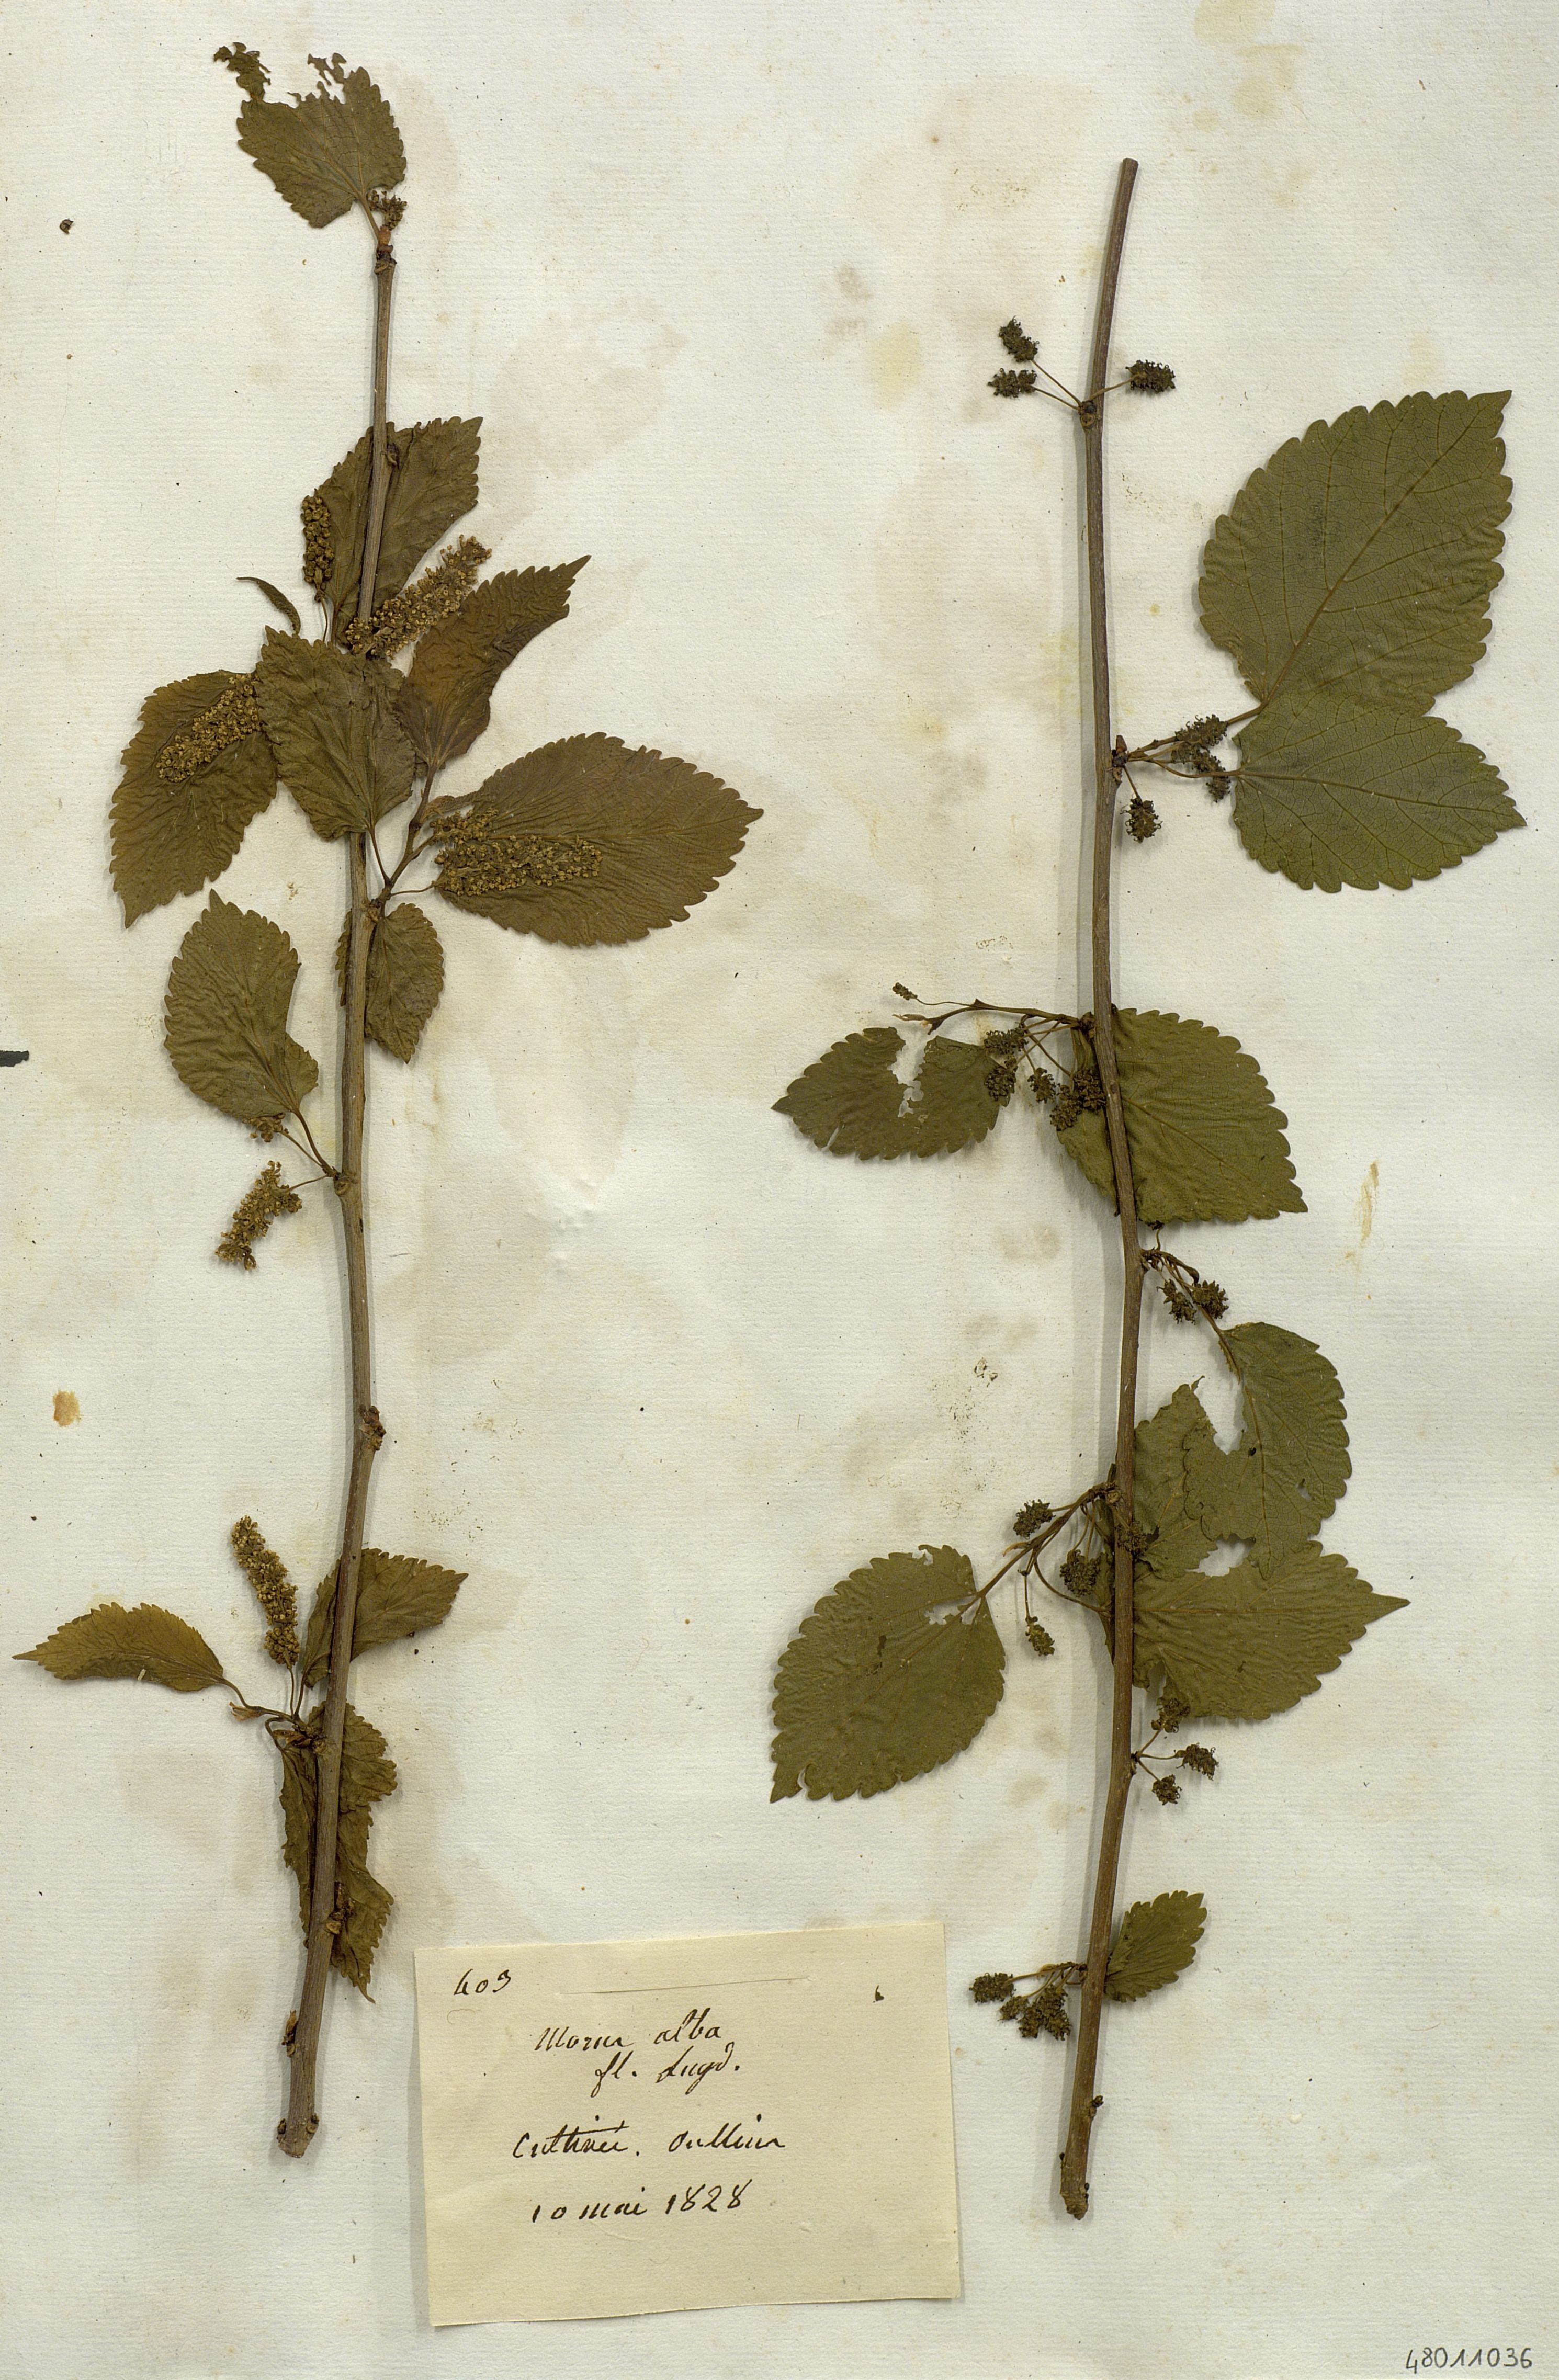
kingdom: Plantae
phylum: Tracheophyta
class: Magnoliopsida
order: Rosales
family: Moraceae
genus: Morus
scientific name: Morus alba
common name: White mulberry
